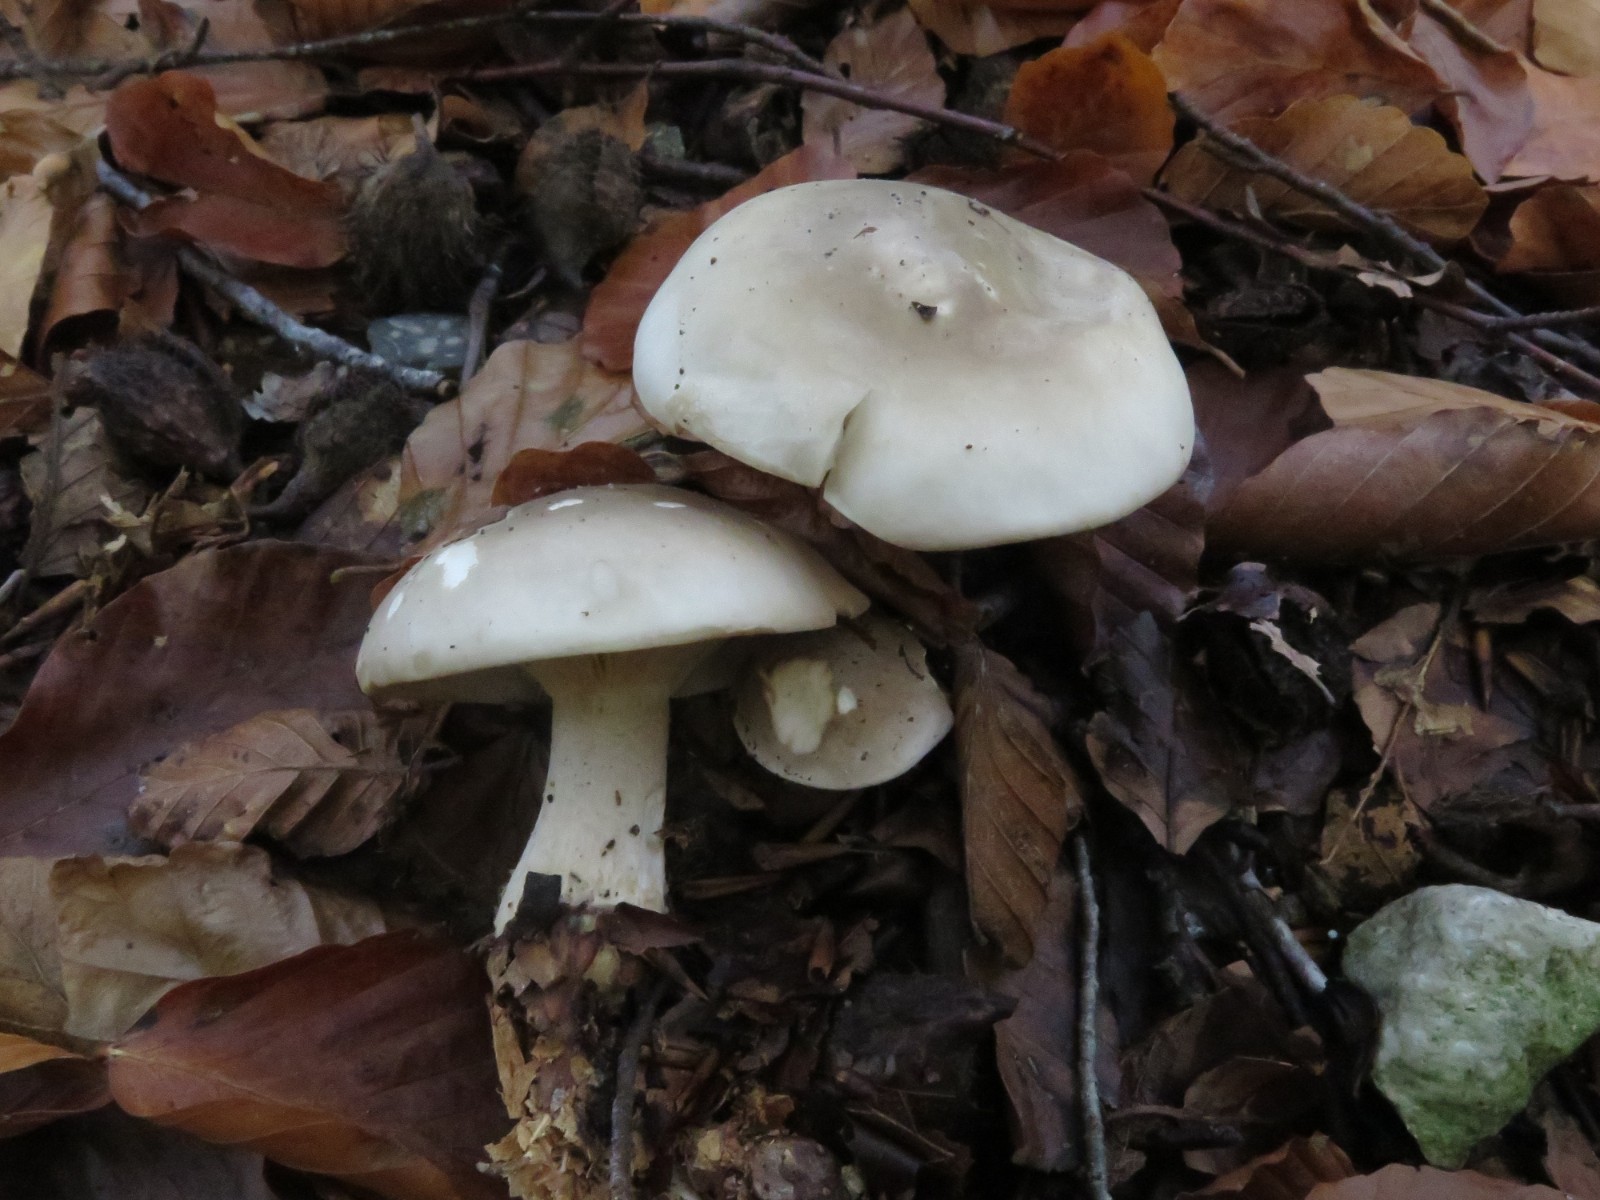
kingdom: Fungi
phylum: Basidiomycota
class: Agaricomycetes
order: Agaricales
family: Tricholomataceae
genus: Clitocybe
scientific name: Clitocybe nebularis
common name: tåge-tragthat
